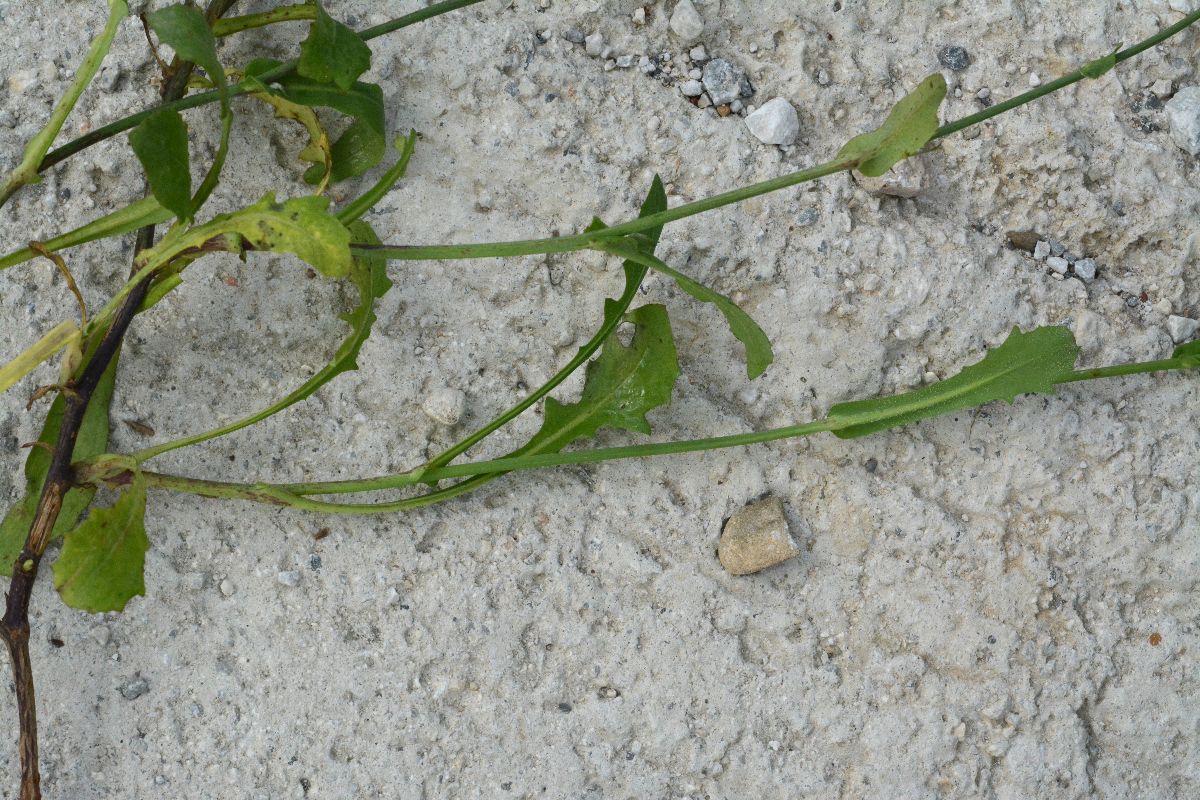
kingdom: Plantae
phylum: Tracheophyta
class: Magnoliopsida
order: Asterales
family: Asteraceae
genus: Reichardia
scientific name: Reichardia picroides
